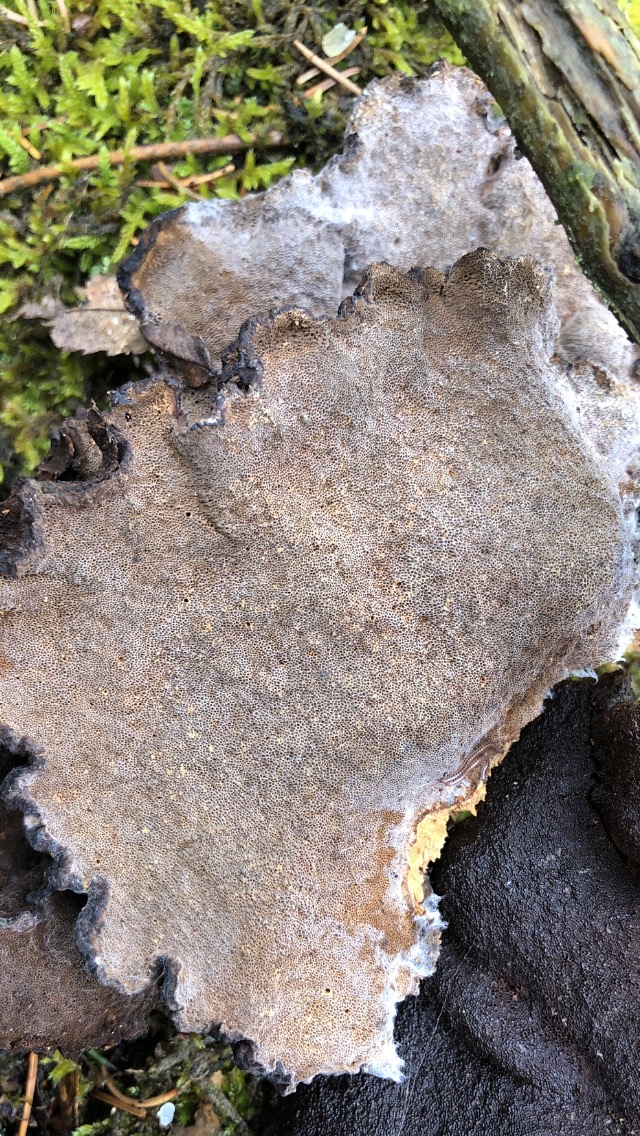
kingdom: Fungi
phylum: Basidiomycota
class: Agaricomycetes
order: Polyporales
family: Ischnodermataceae
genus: Ischnoderma
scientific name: Ischnoderma benzoinum
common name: gran-tjæreporesvamp
